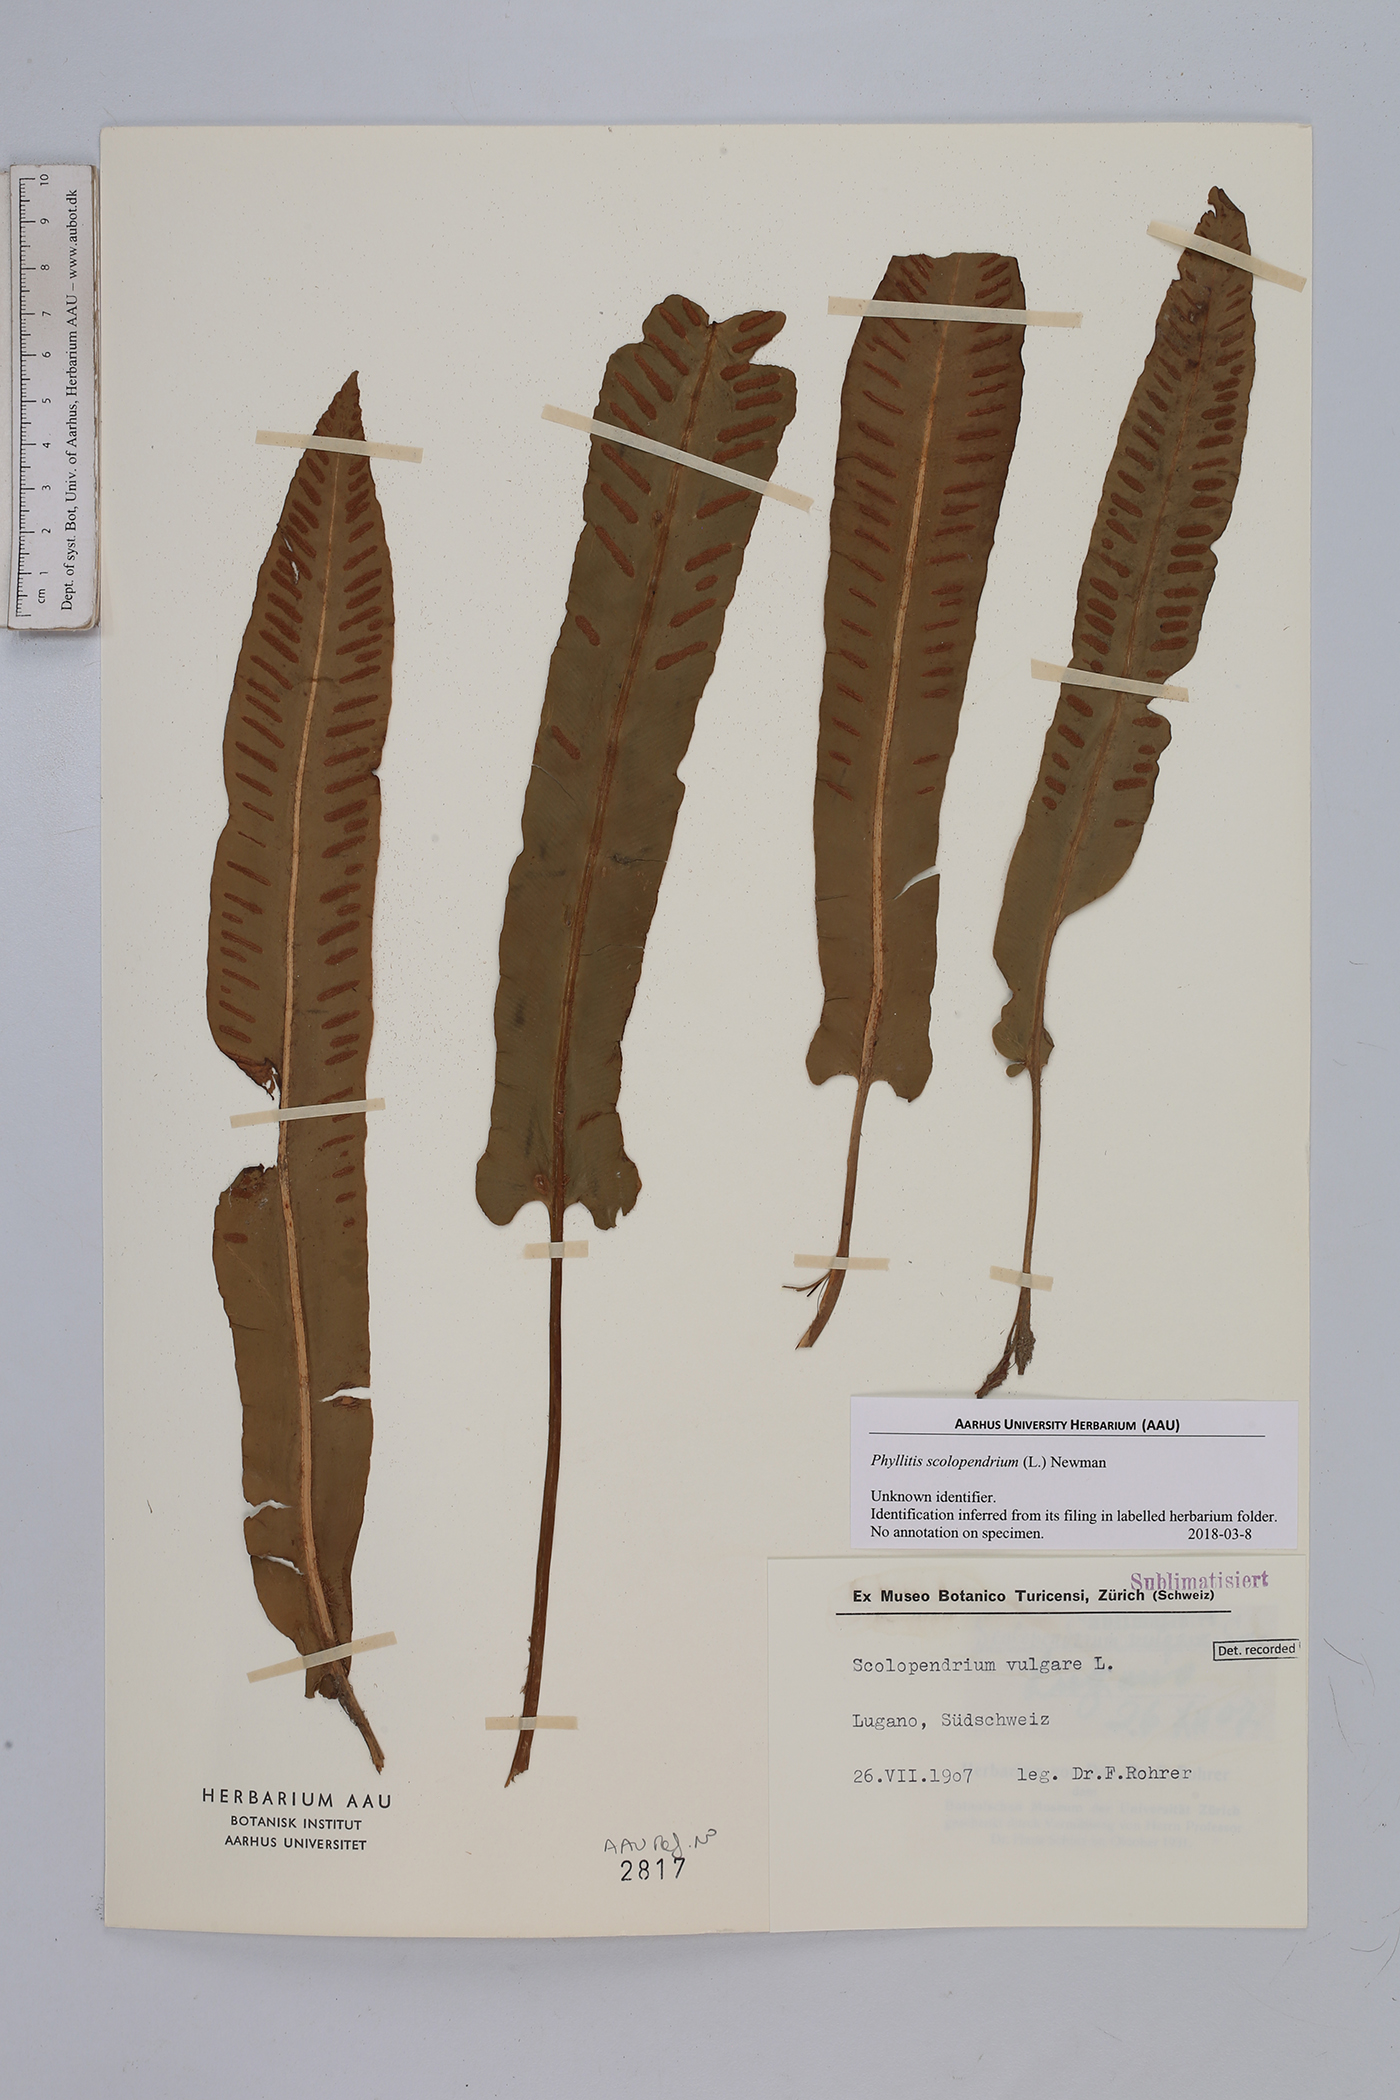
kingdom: Plantae
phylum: Tracheophyta
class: Polypodiopsida
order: Polypodiales
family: Aspleniaceae
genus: Asplenium
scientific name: Asplenium scolopendrium
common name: Hart's-tongue fern
